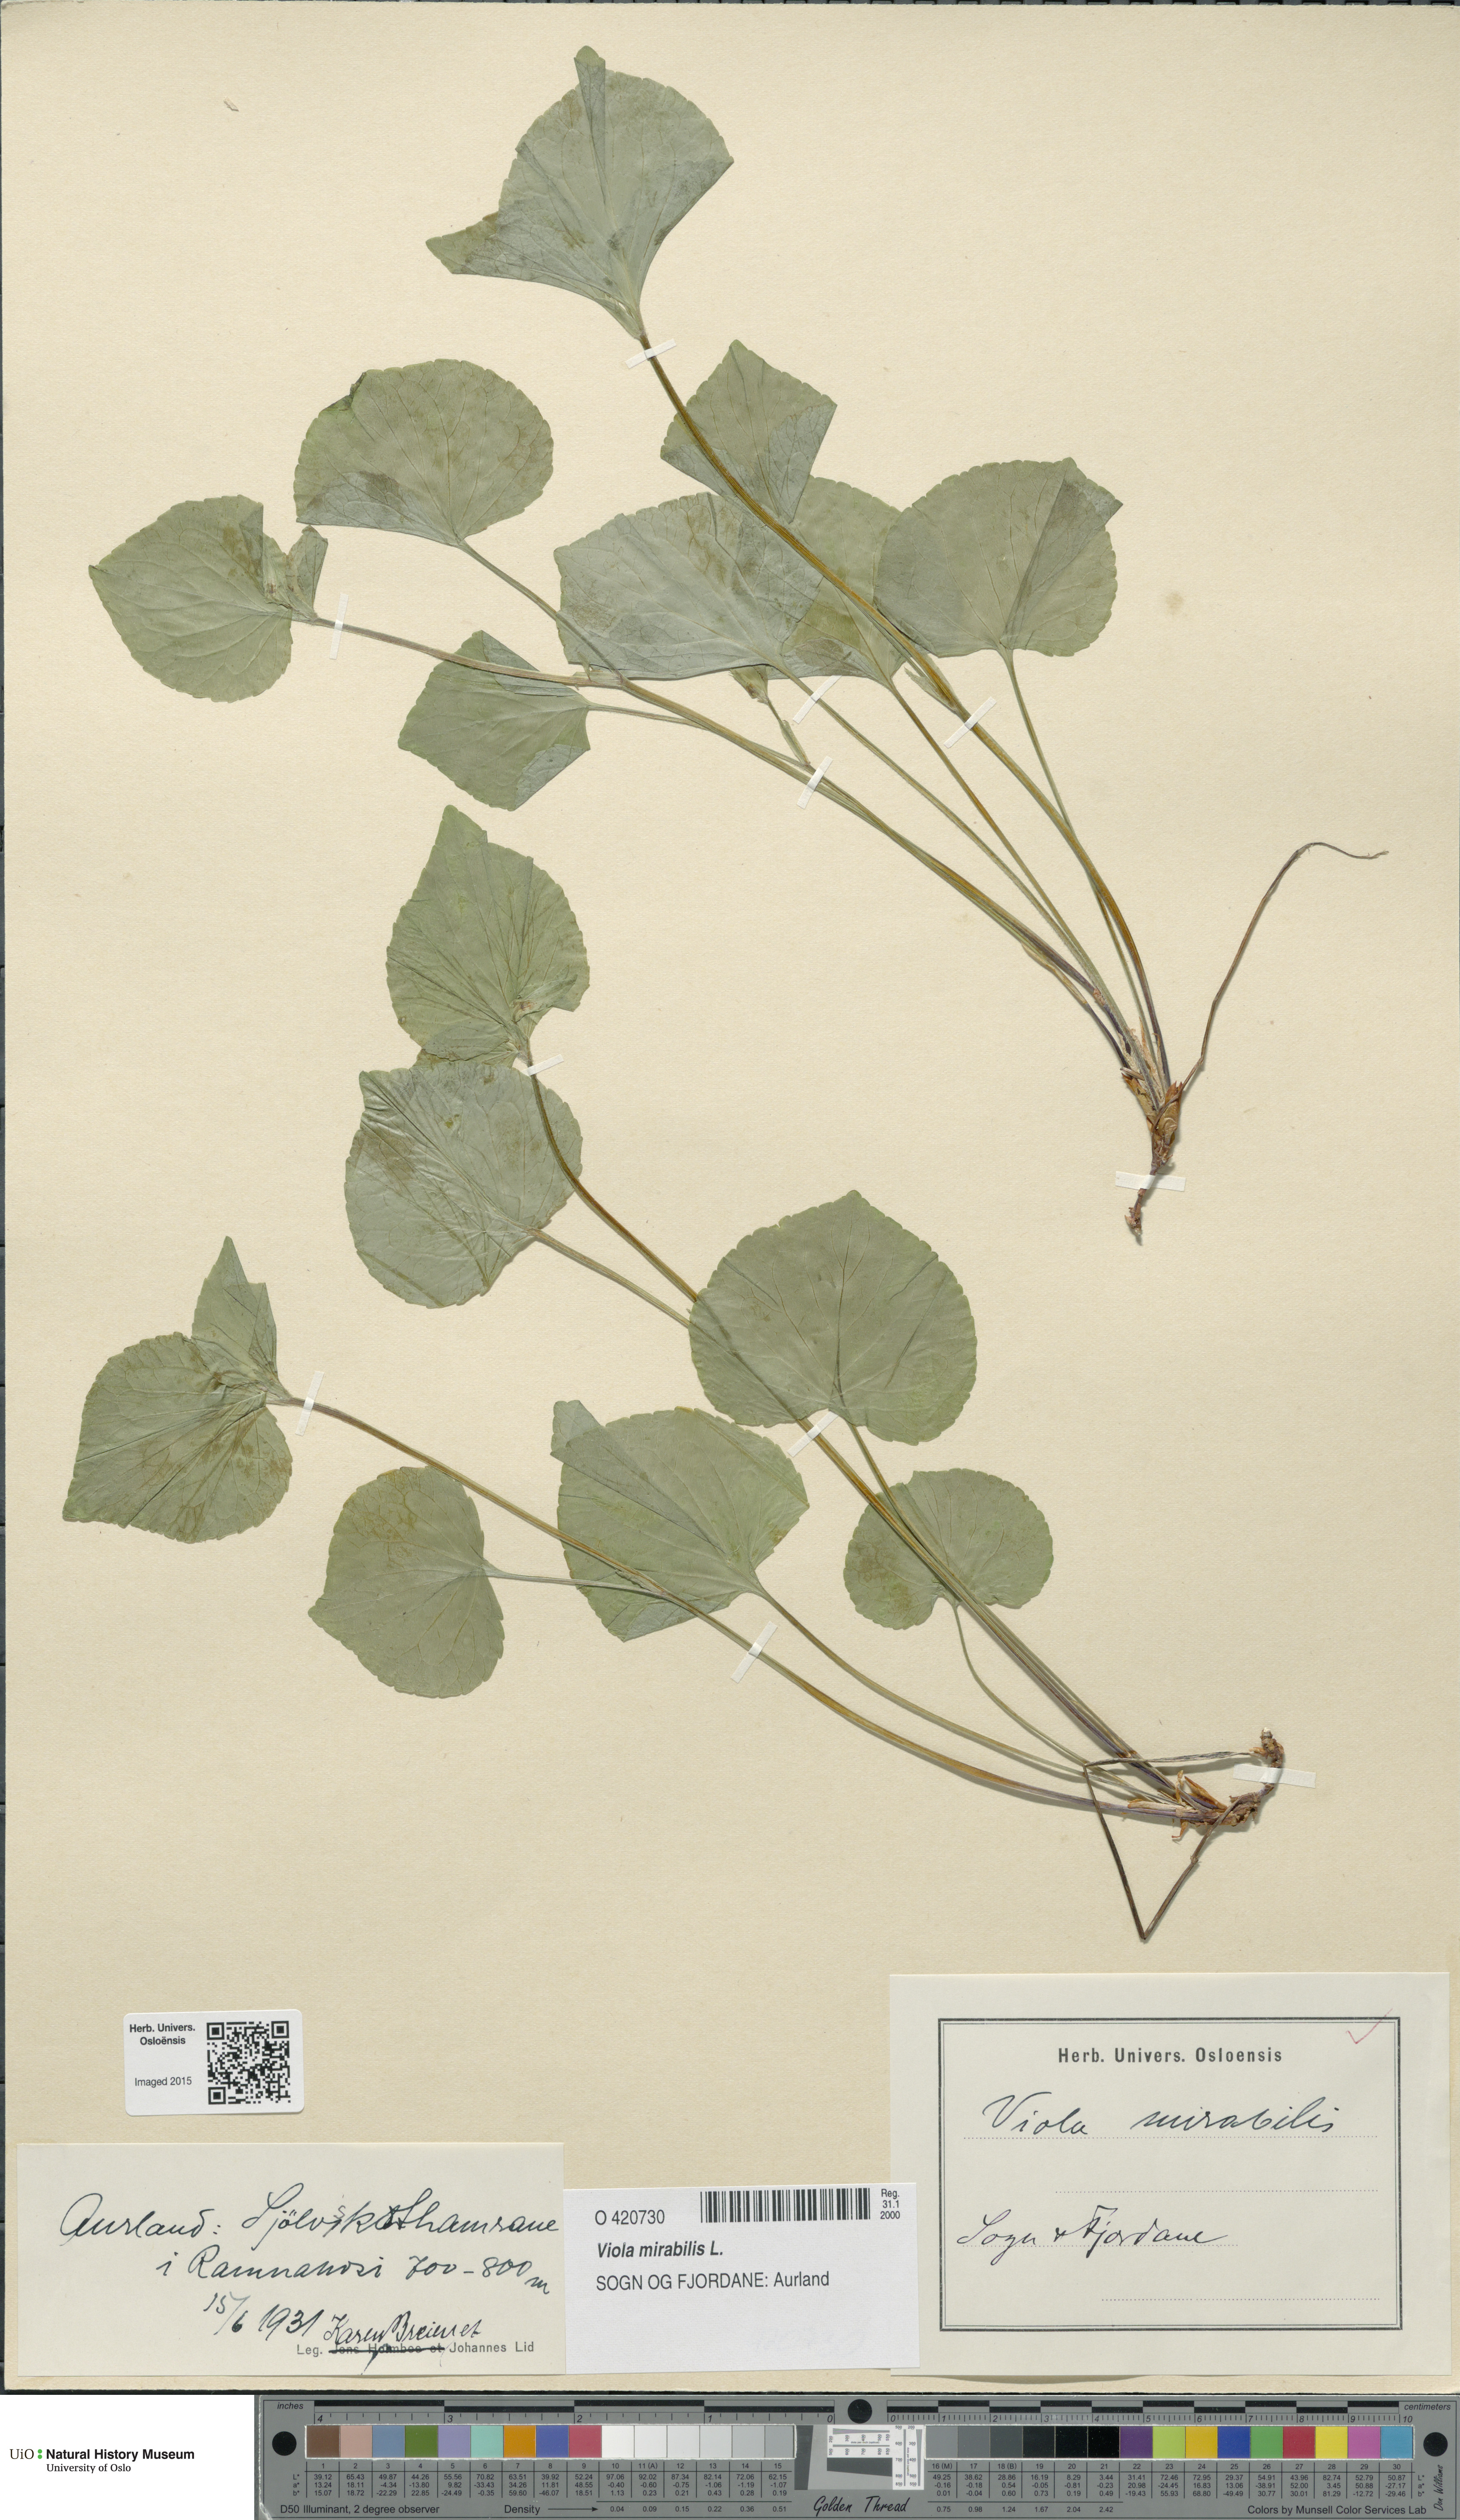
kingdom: Plantae
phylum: Tracheophyta
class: Magnoliopsida
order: Malpighiales
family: Violaceae
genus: Viola
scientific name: Viola mirabilis
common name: Wonder violet
